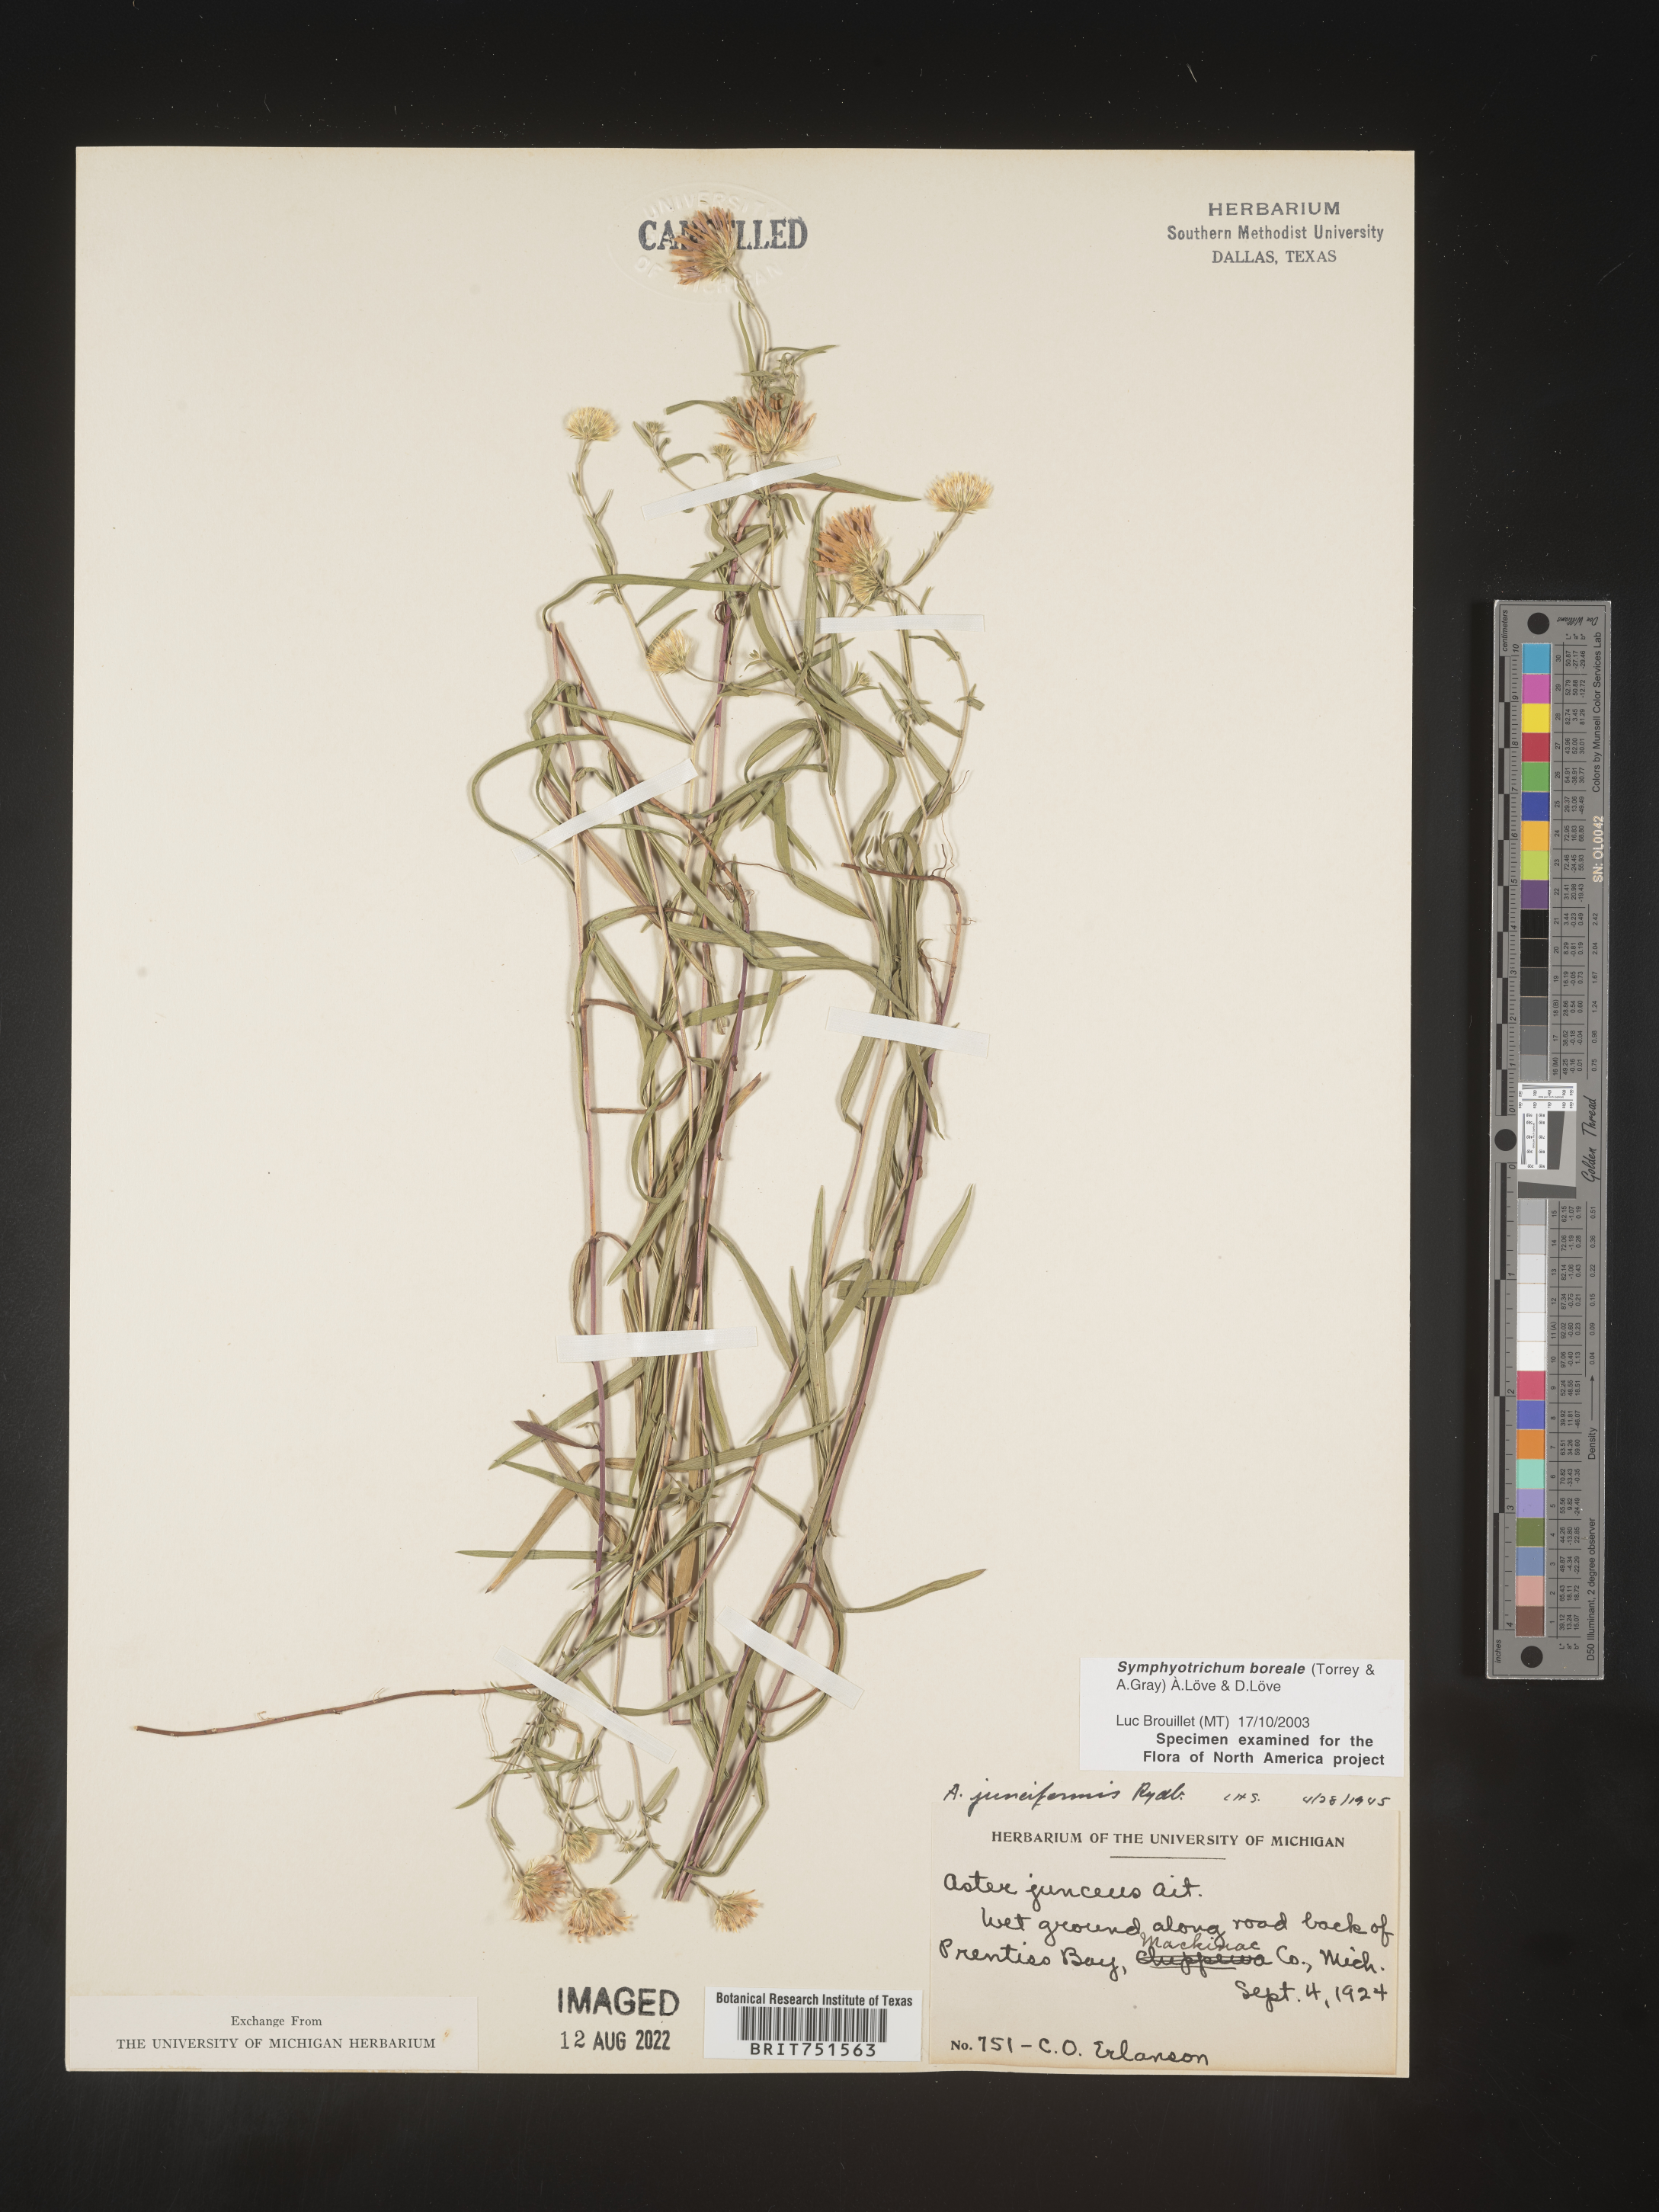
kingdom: Plantae
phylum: Tracheophyta
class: Magnoliopsida
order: Asterales
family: Asteraceae
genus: Symphyotrichum
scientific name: Symphyotrichum boreale
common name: Northern bog aster
